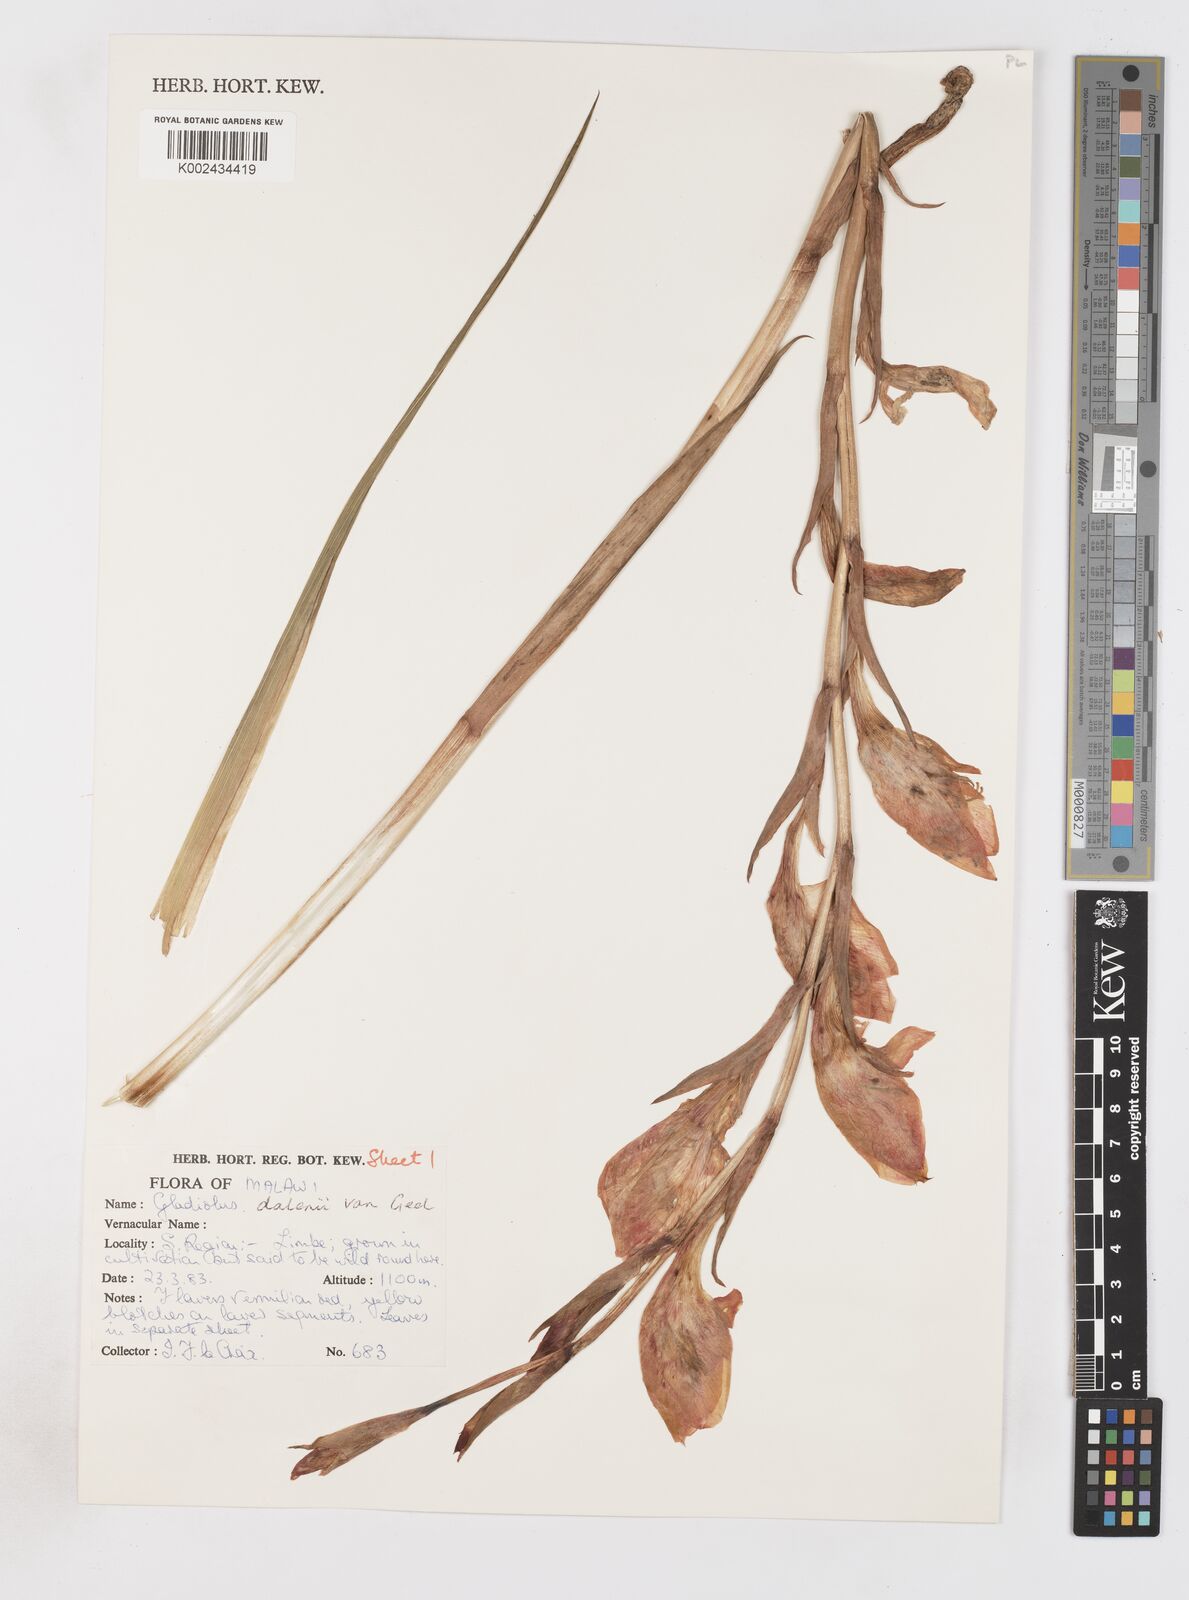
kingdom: Plantae
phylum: Tracheophyta
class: Liliopsida
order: Asparagales
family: Iridaceae
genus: Gladiolus
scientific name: Gladiolus dalenii
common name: Cornflag
